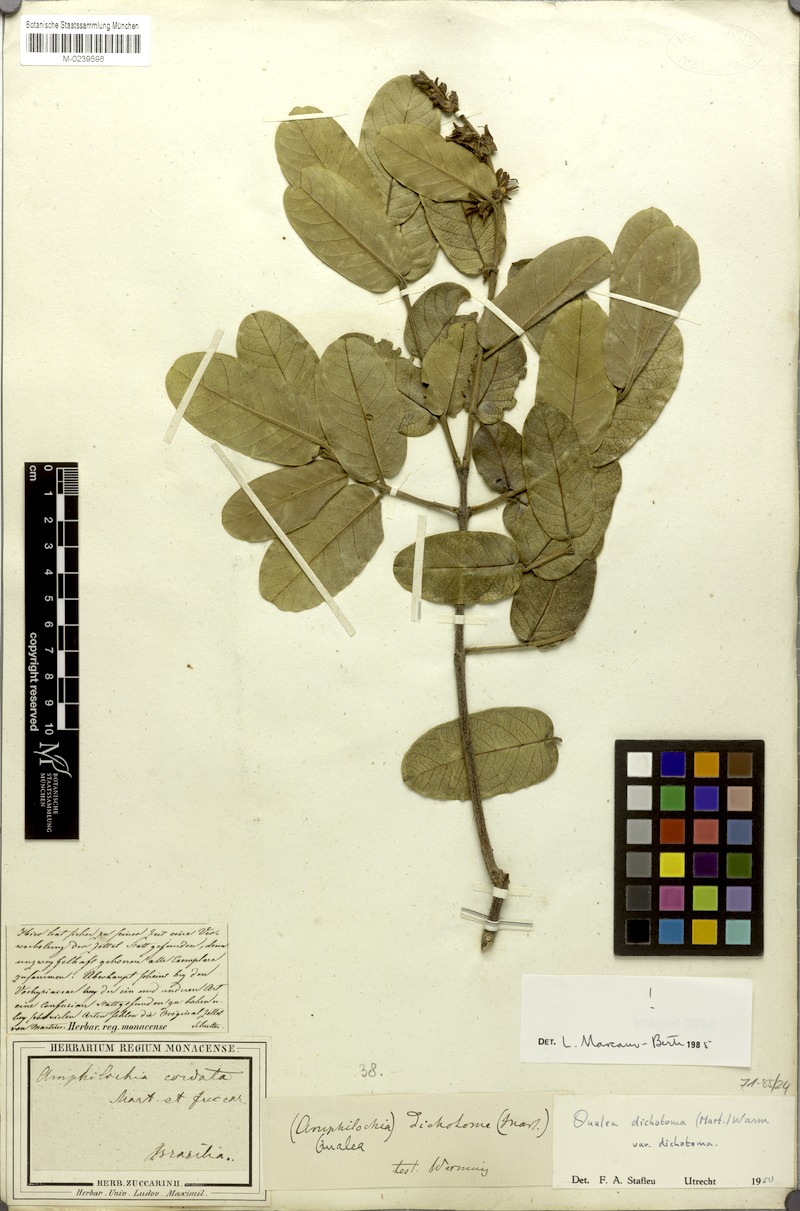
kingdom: Plantae
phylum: Tracheophyta
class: Magnoliopsida
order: Myrtales
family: Vochysiaceae
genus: Qualea
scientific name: Qualea cordata
